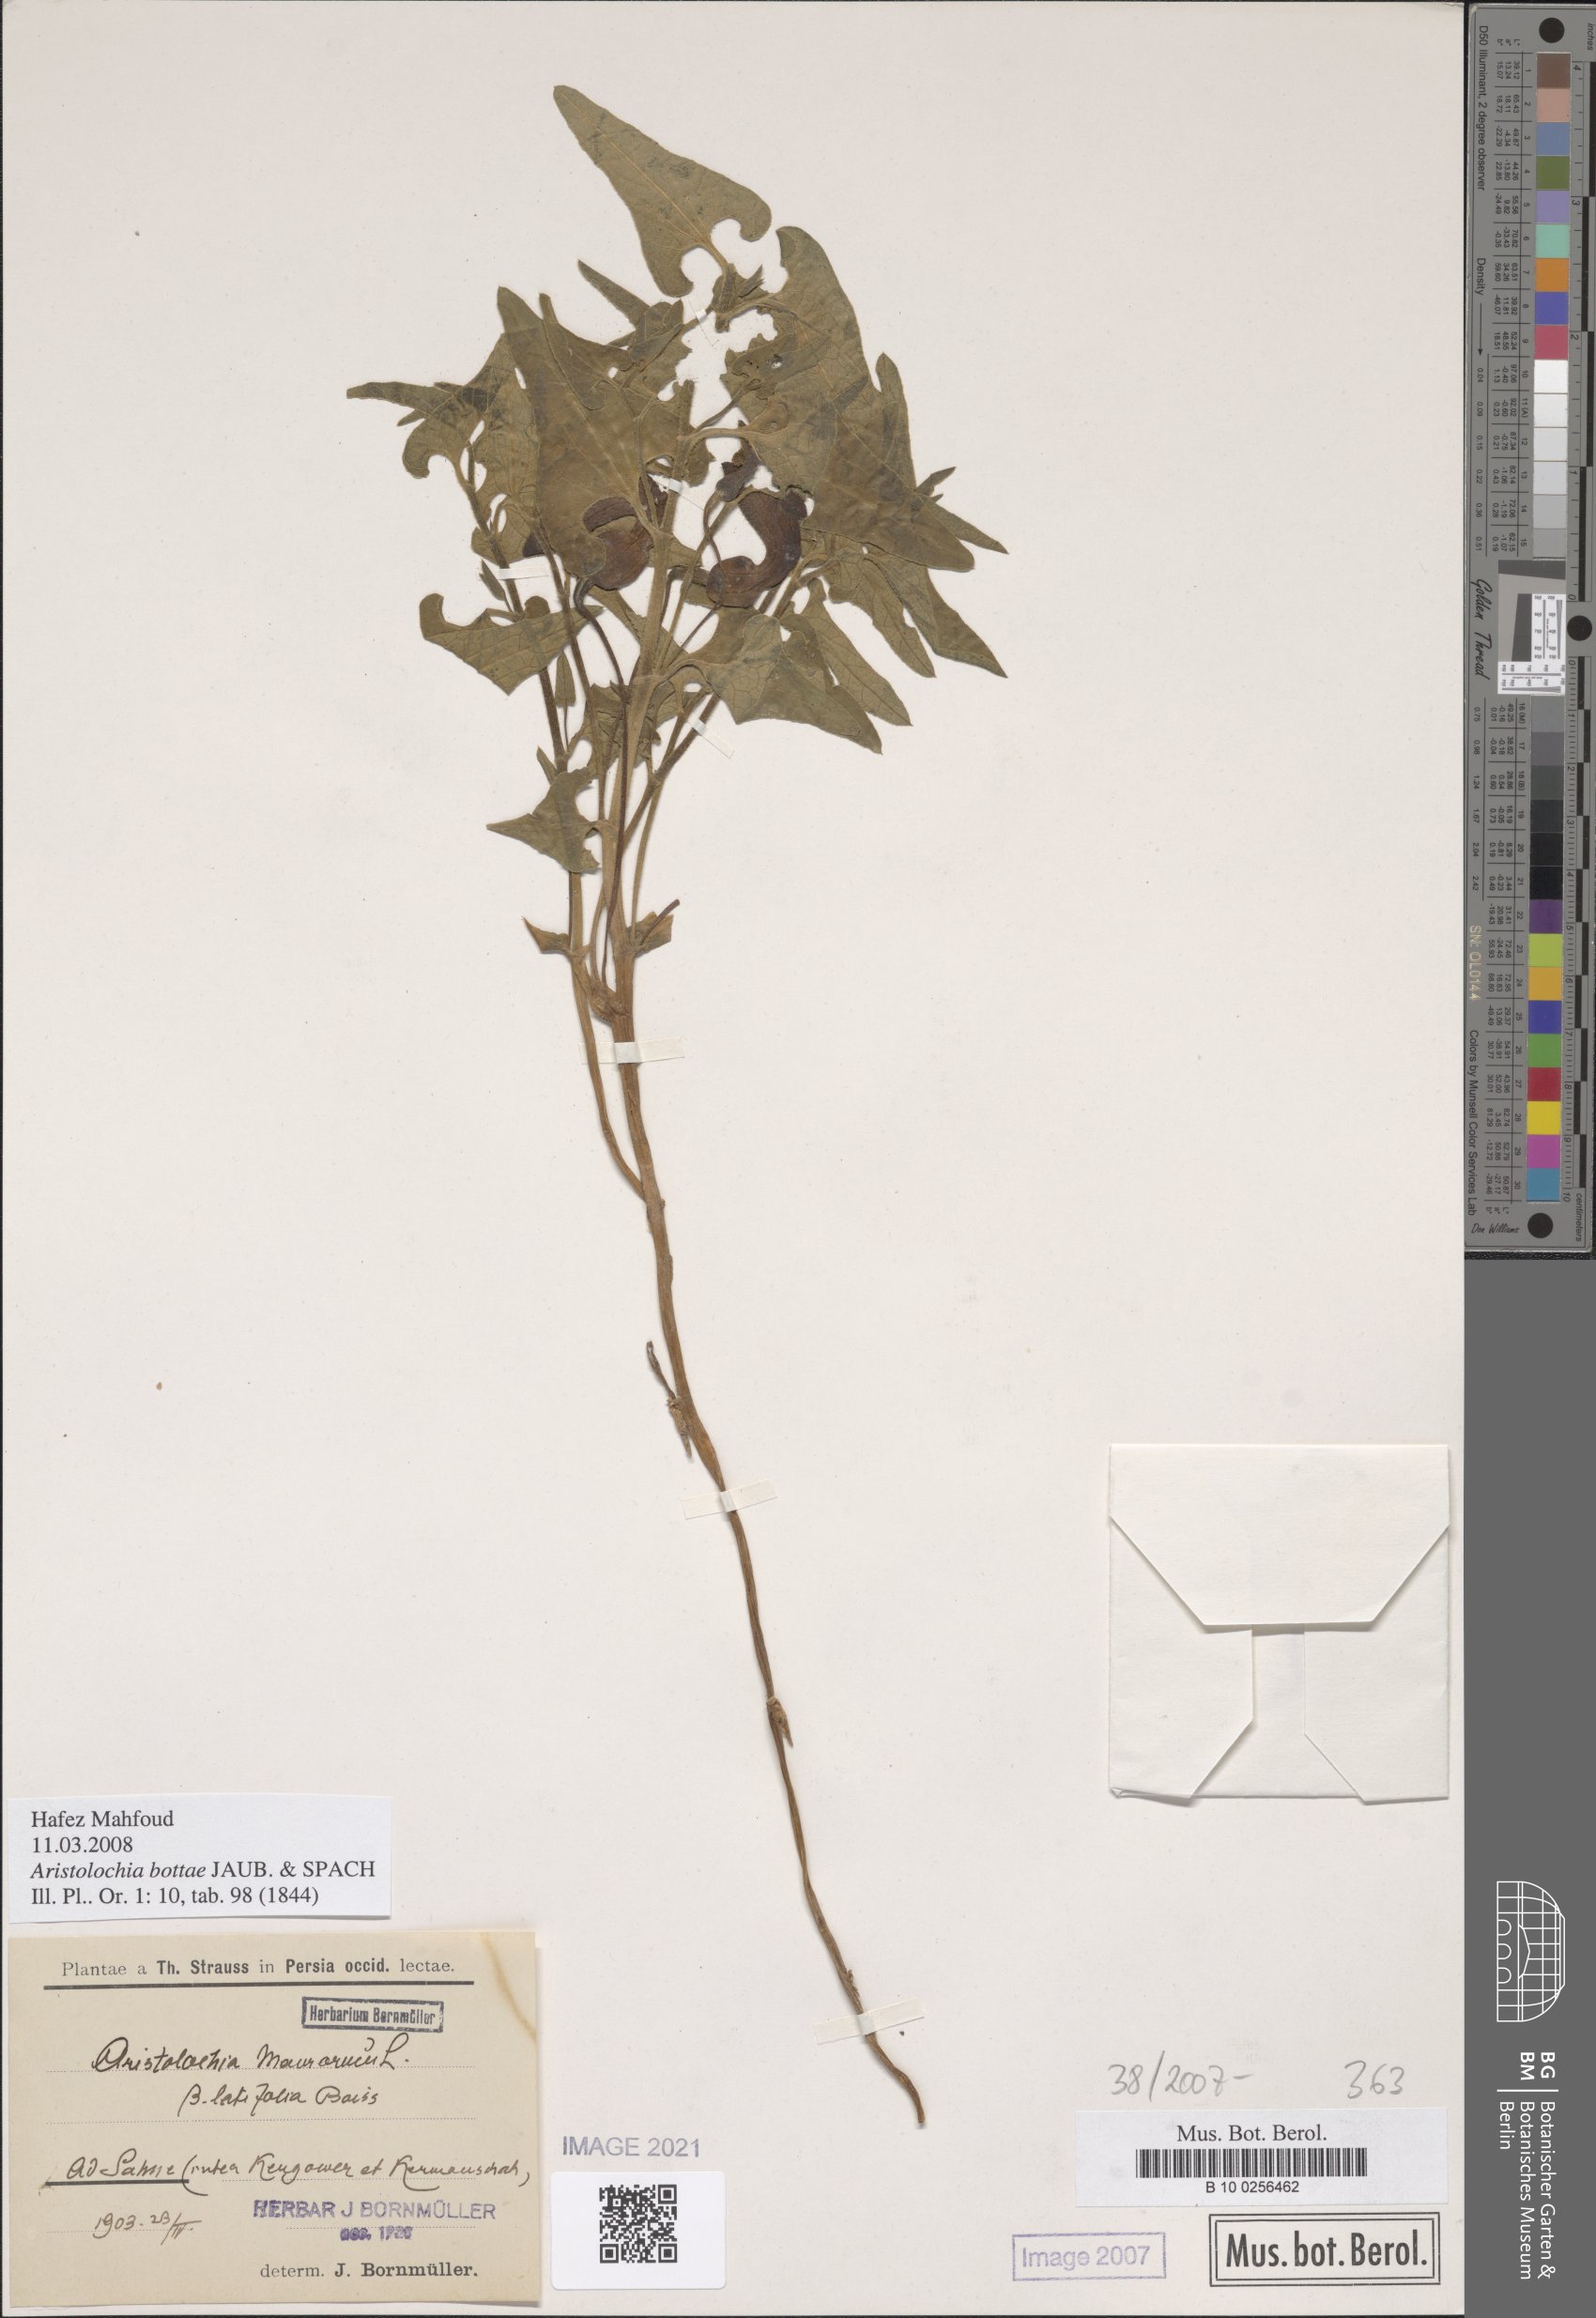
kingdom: Plantae
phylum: Tracheophyta
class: Magnoliopsida
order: Piperales
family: Aristolochiaceae
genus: Aristolochia
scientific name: Aristolochia bottae
